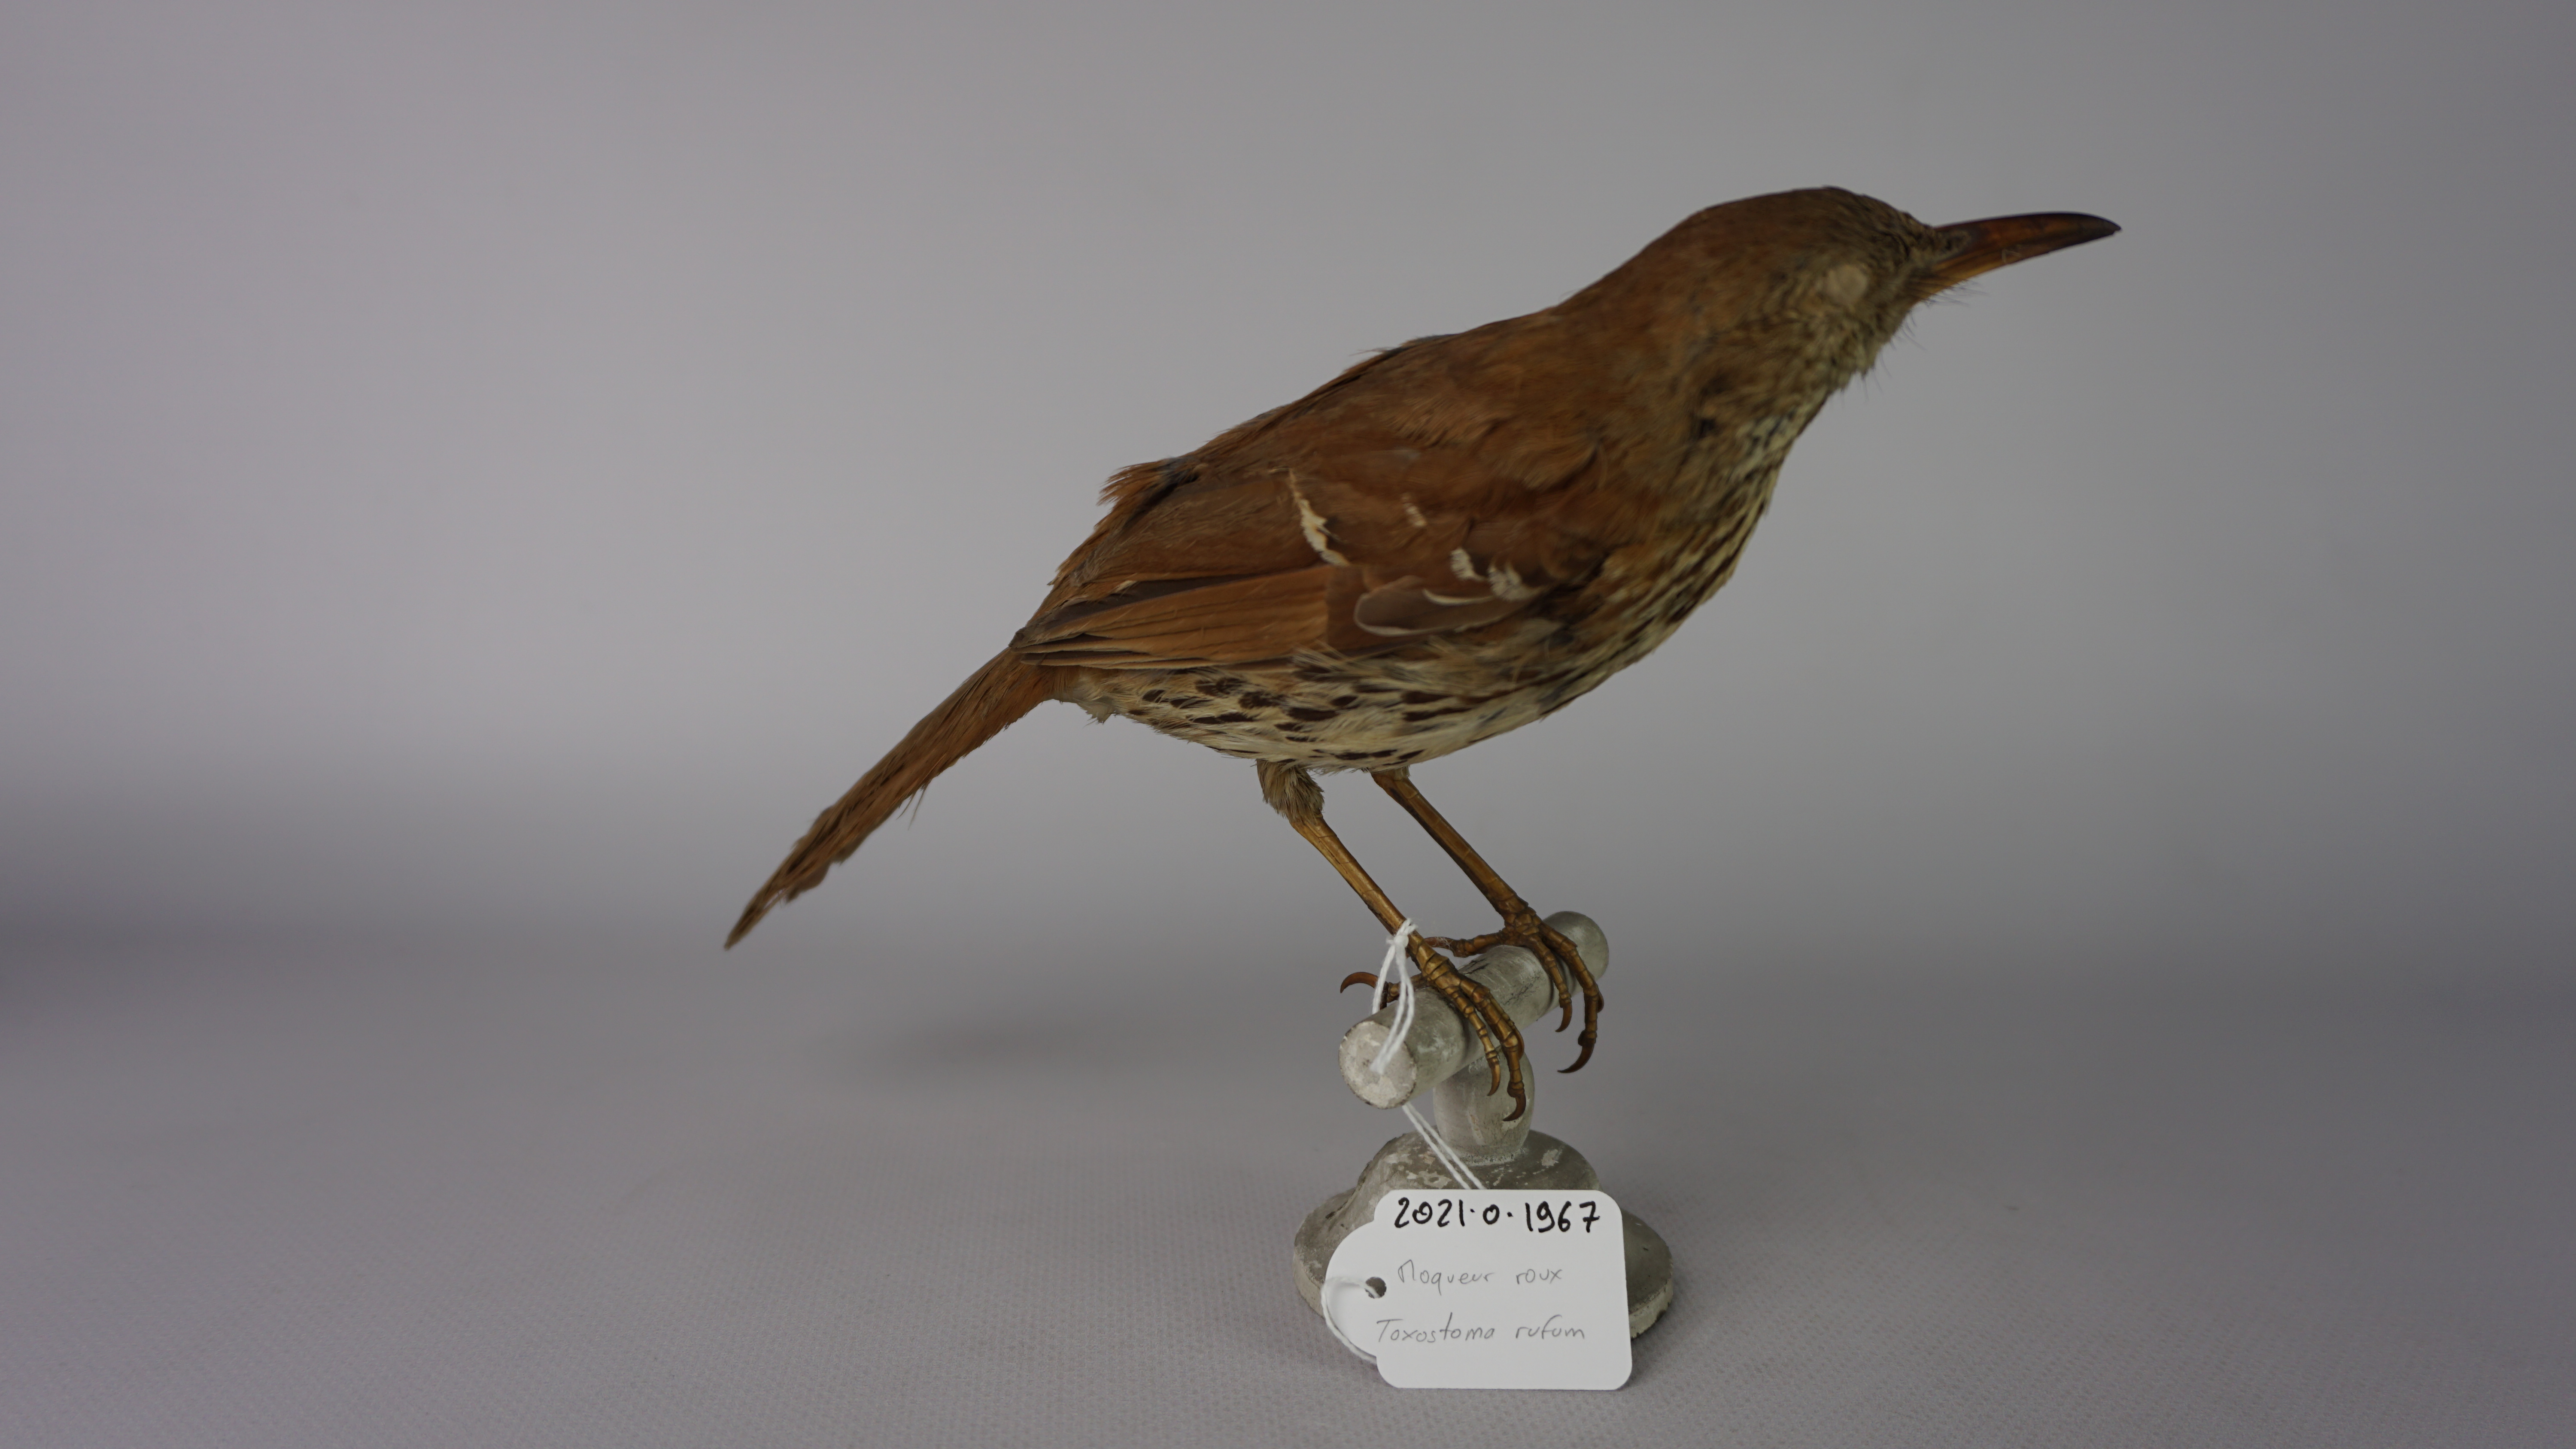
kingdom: Animalia
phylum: Chordata
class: Aves
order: Passeriformes
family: Mimidae
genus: Toxostoma
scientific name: Toxostoma longirostre
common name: Long-billed thrasher
